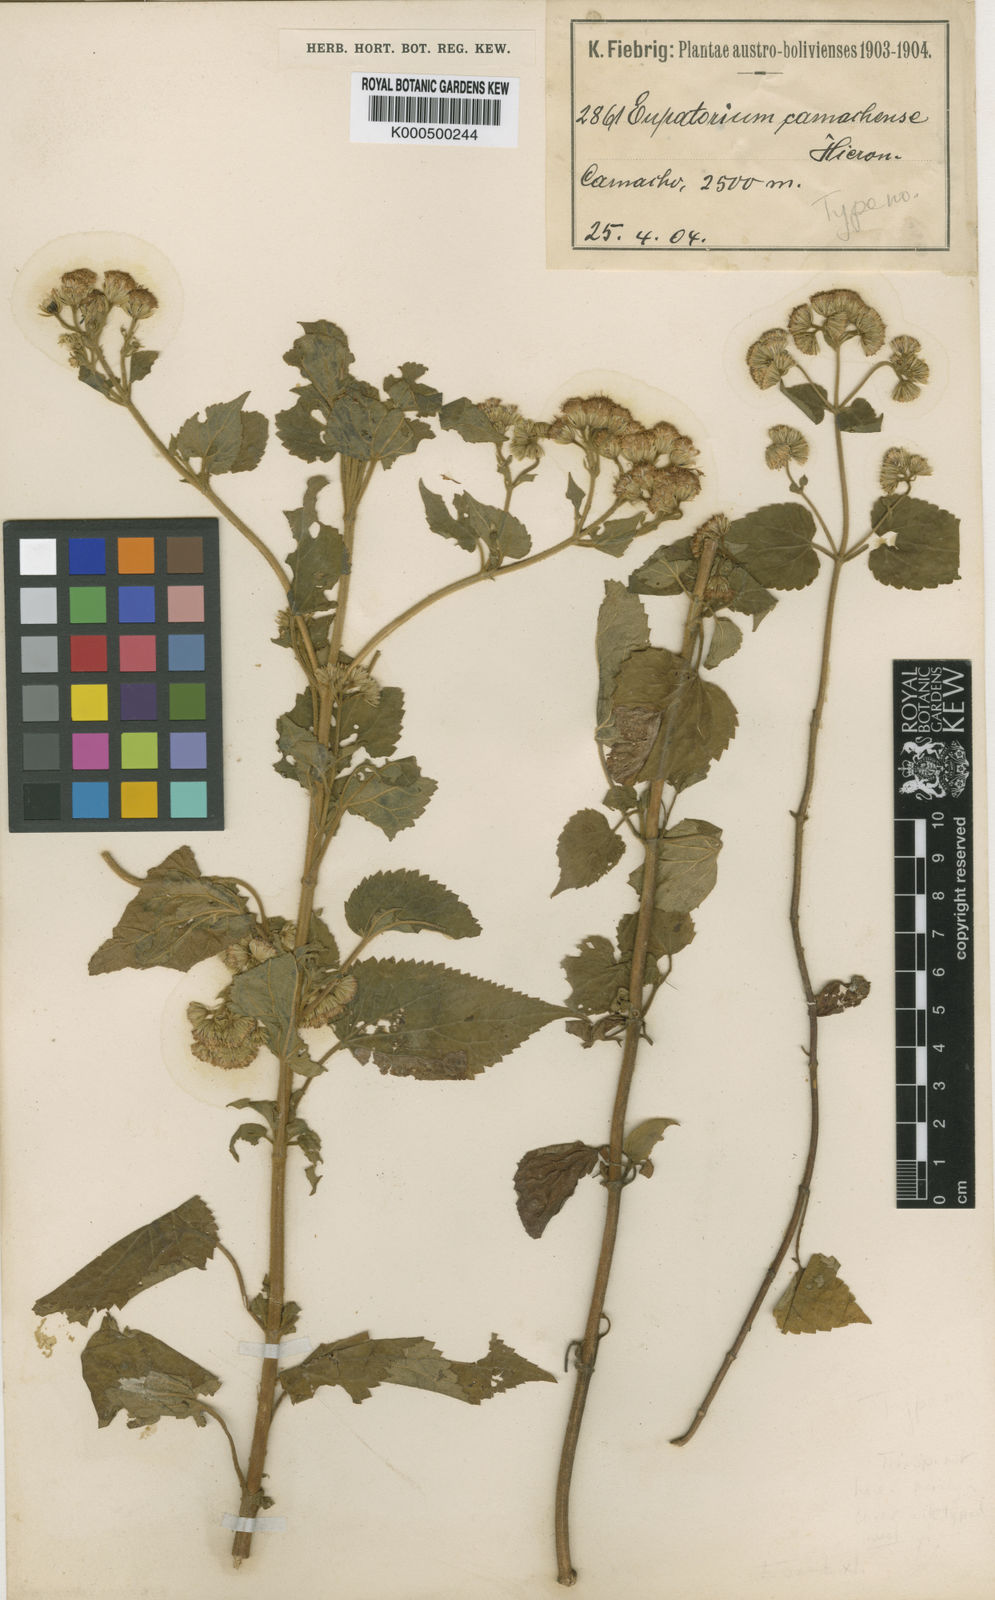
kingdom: Plantae
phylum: Tracheophyta
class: Magnoliopsida
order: Asterales
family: Asteraceae
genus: Ageratina
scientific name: Ageratina tenuis
